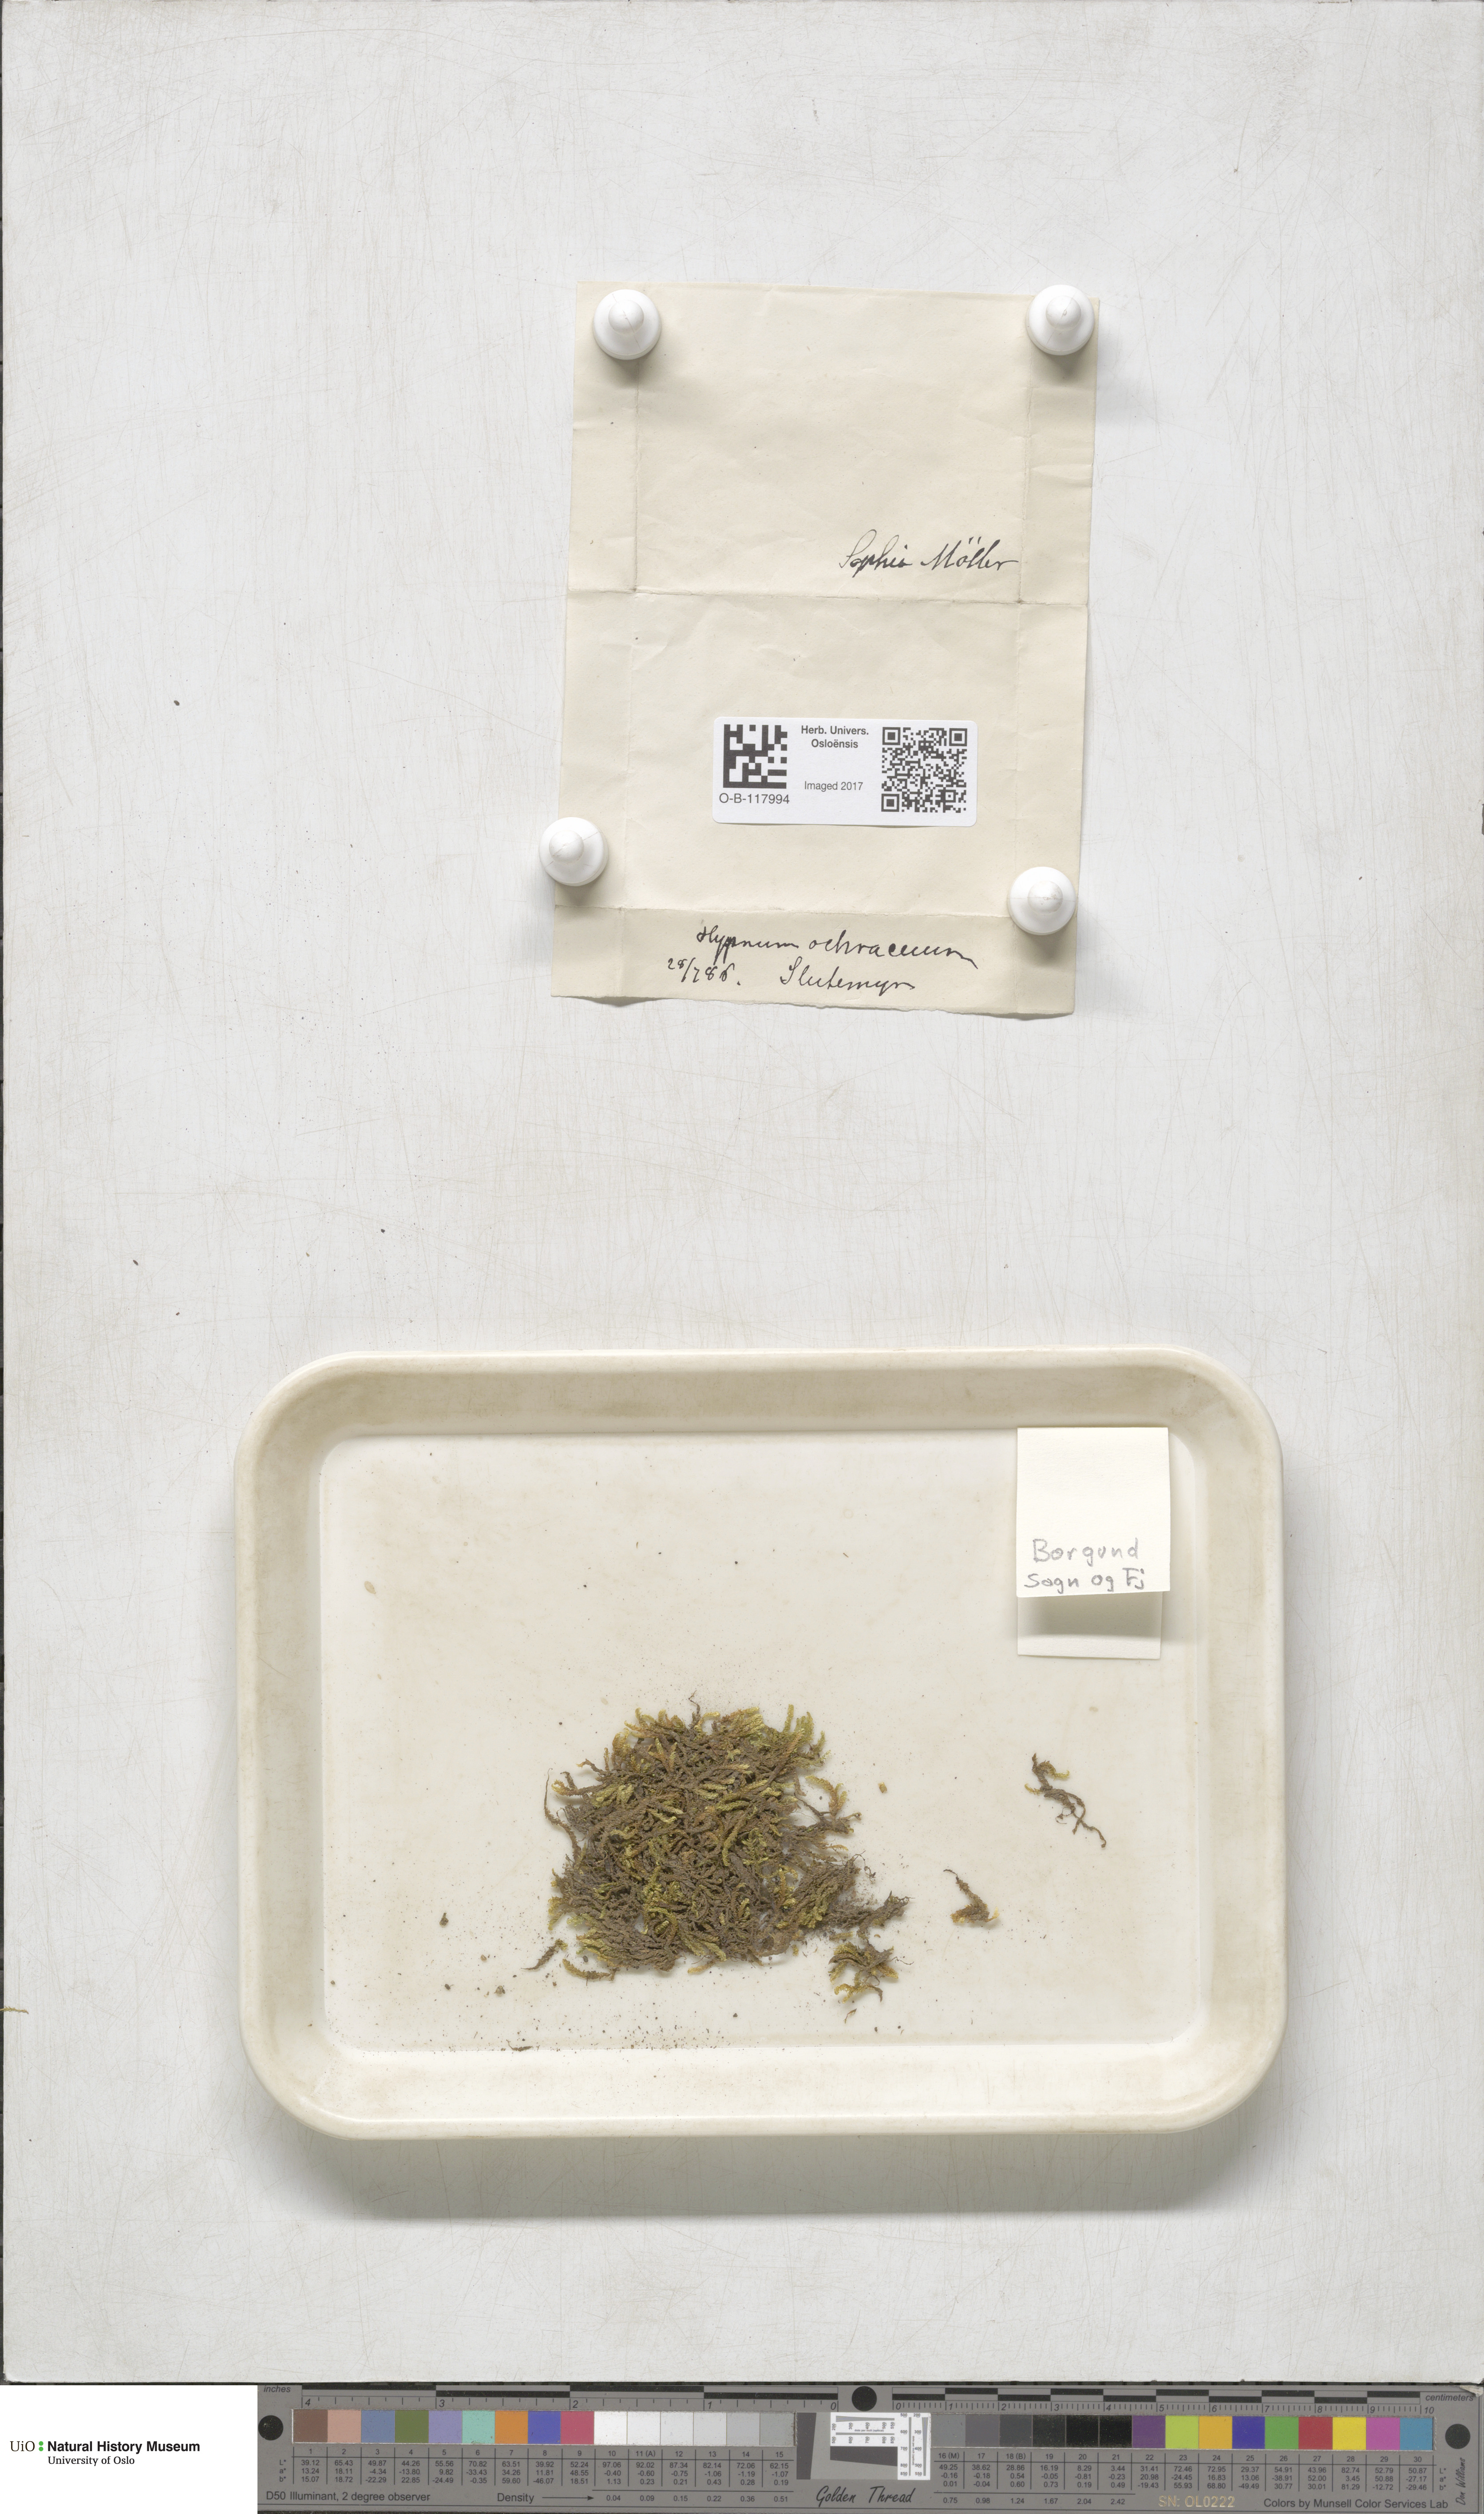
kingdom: Plantae
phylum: Bryophyta
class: Bryopsida
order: Hypnales
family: Scorpidiaceae
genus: Hygrohypnella
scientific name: Hygrohypnella ochracea
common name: Hygrohypnum moss
